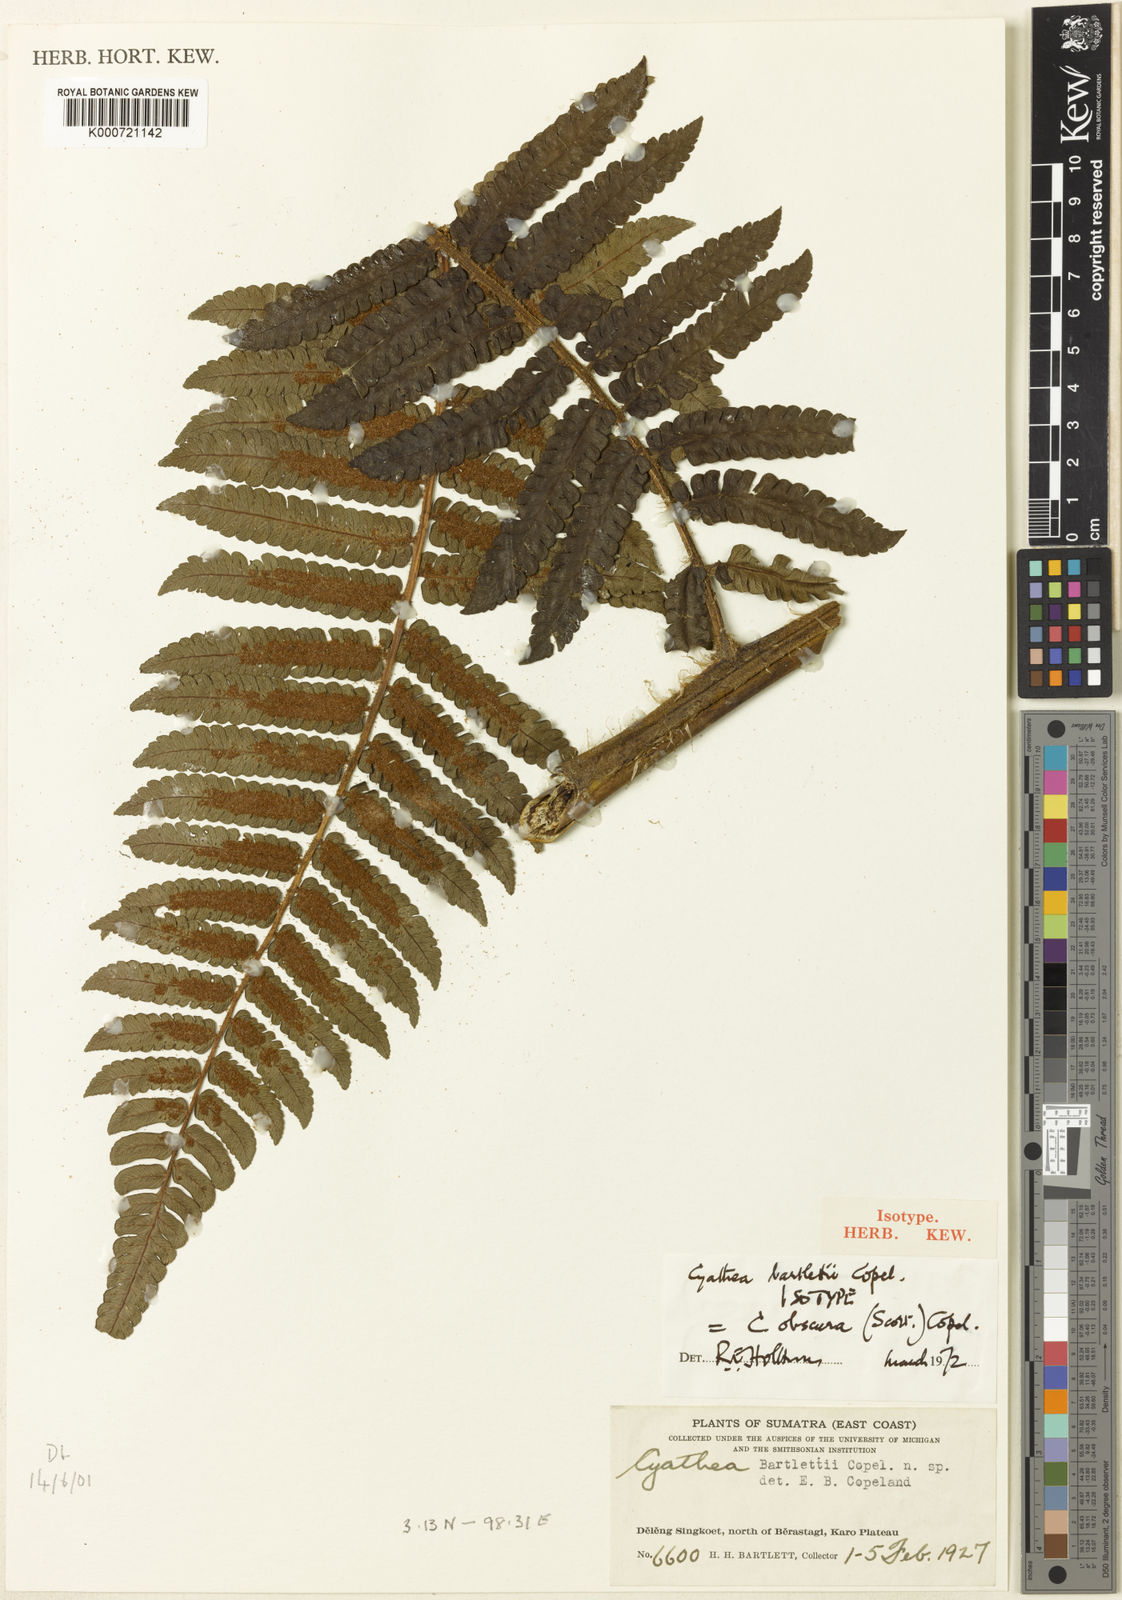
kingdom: Plantae
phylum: Tracheophyta
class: Polypodiopsida
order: Cyatheales
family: Cyatheaceae
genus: Sphaeropteris
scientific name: Sphaeropteris obscura
